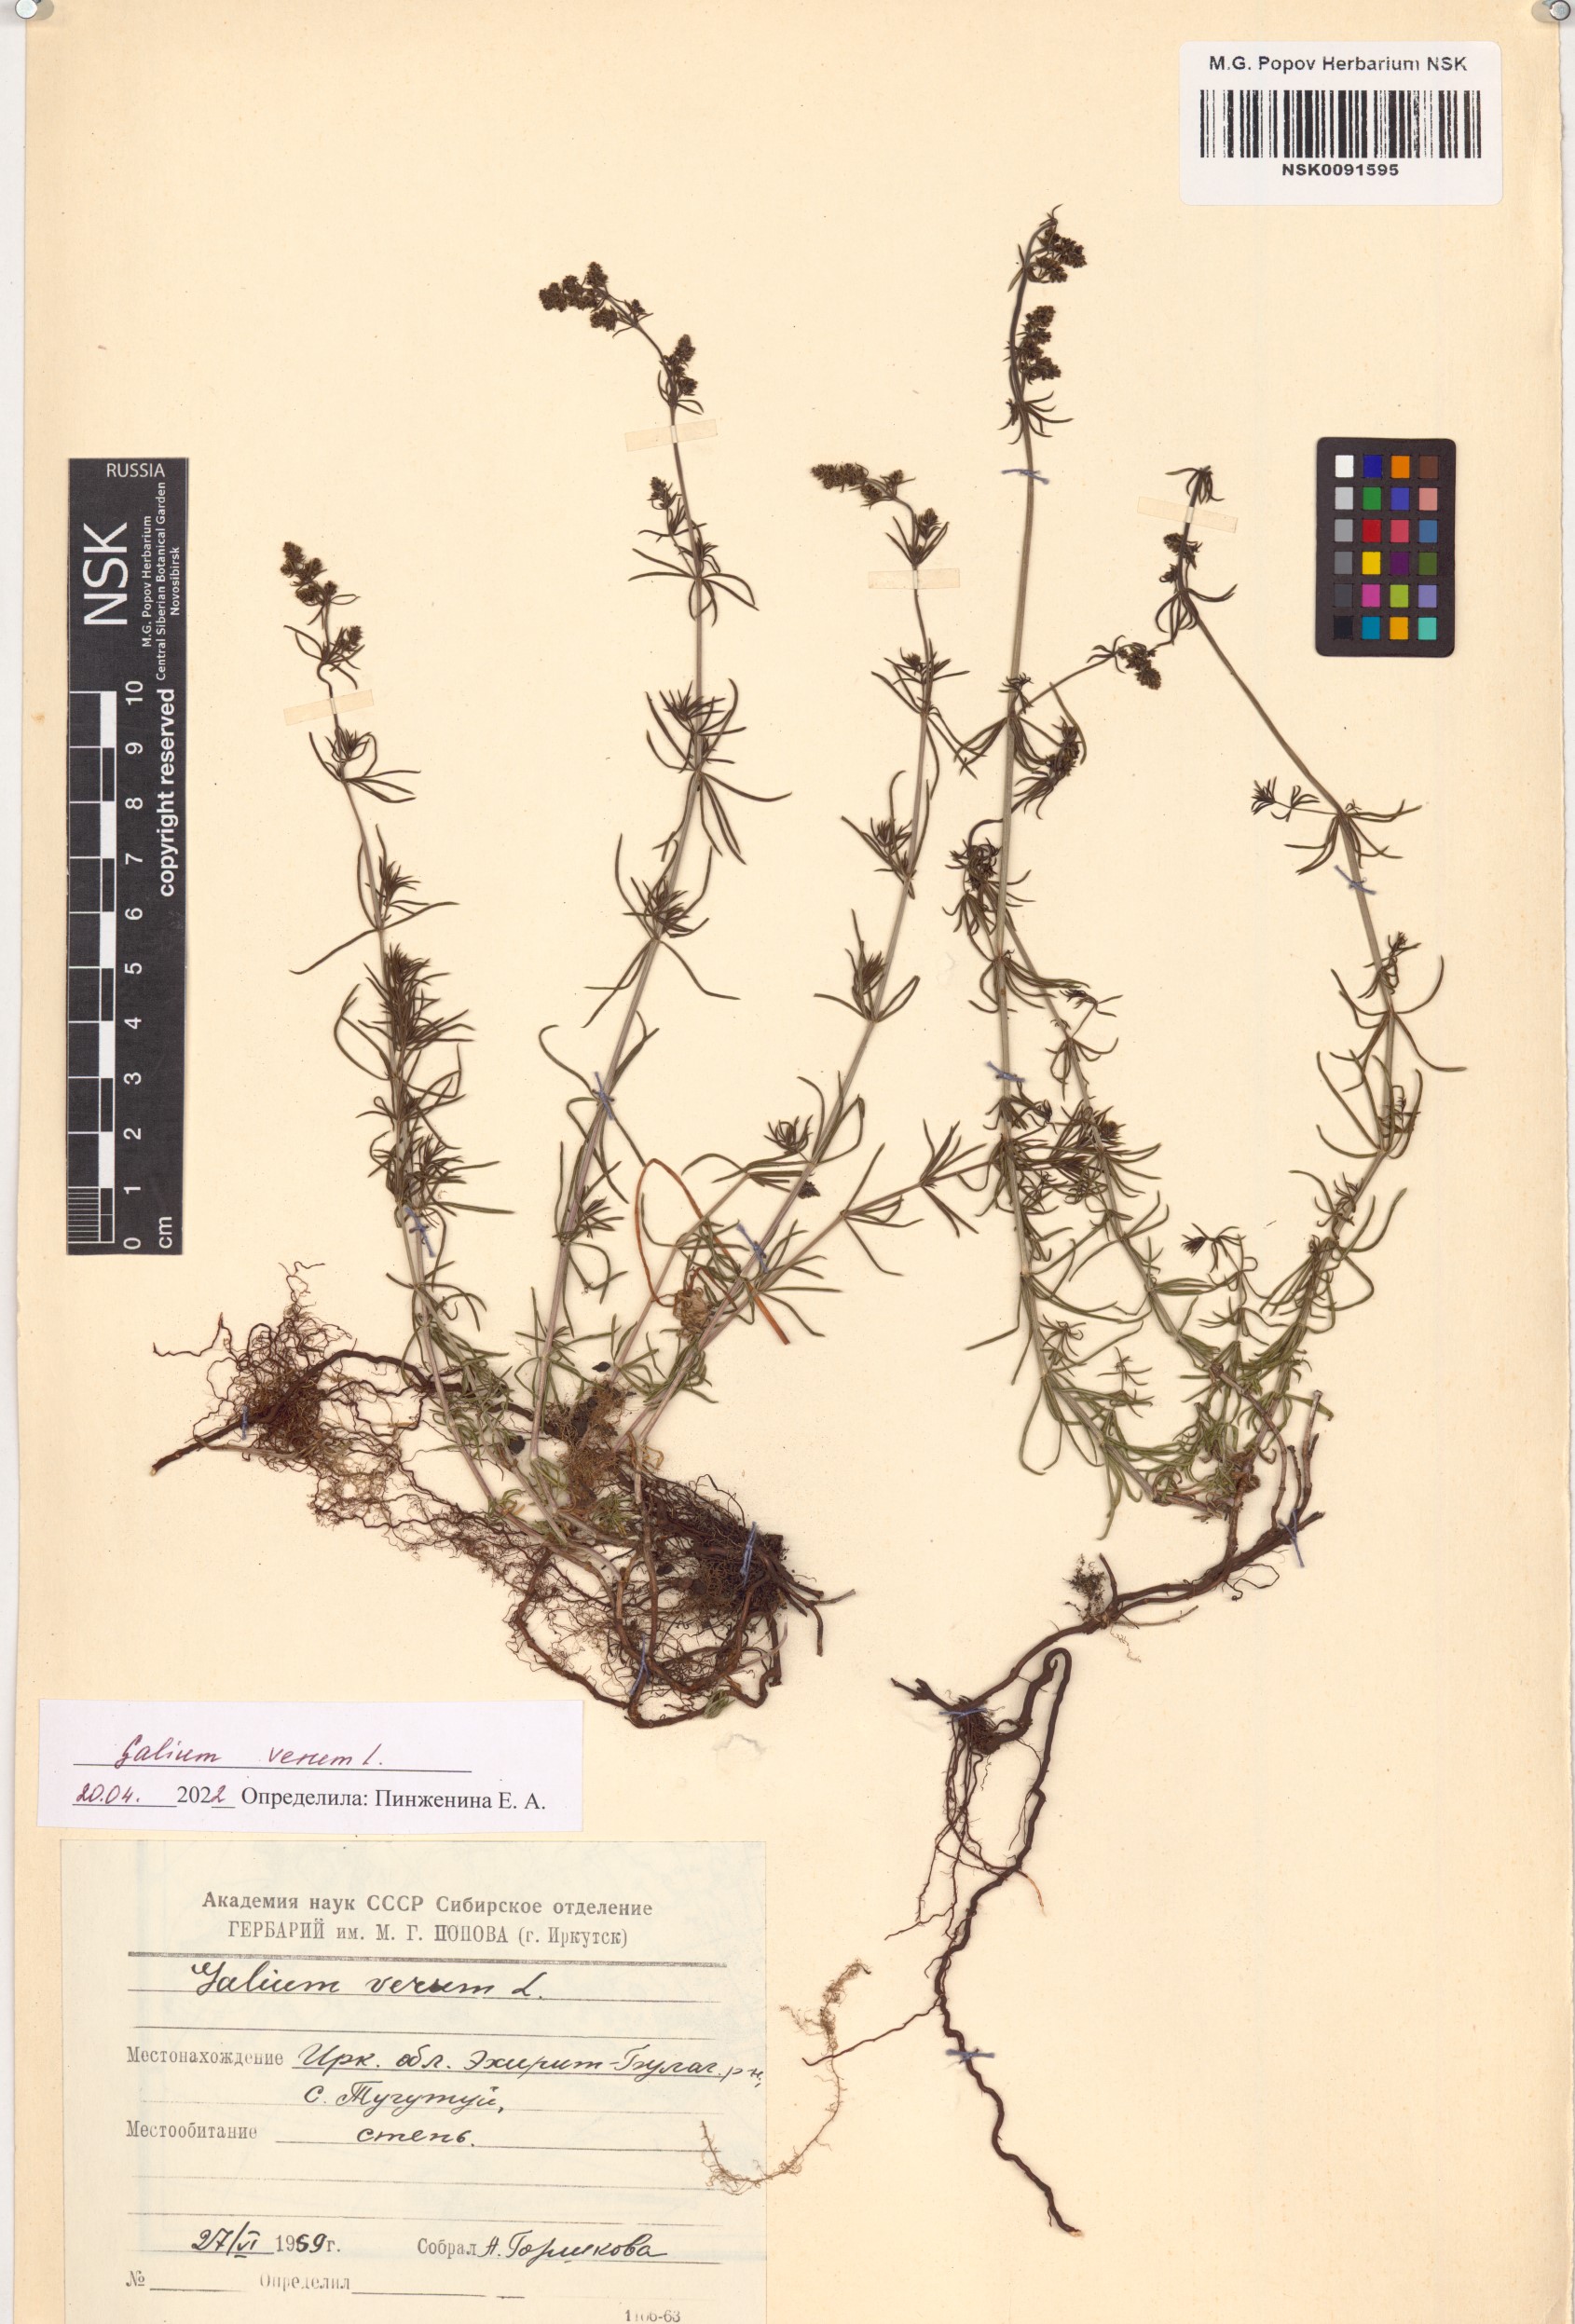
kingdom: Plantae
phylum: Tracheophyta
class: Magnoliopsida
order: Gentianales
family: Rubiaceae
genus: Galium
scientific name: Galium verum
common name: Lady's bedstraw
